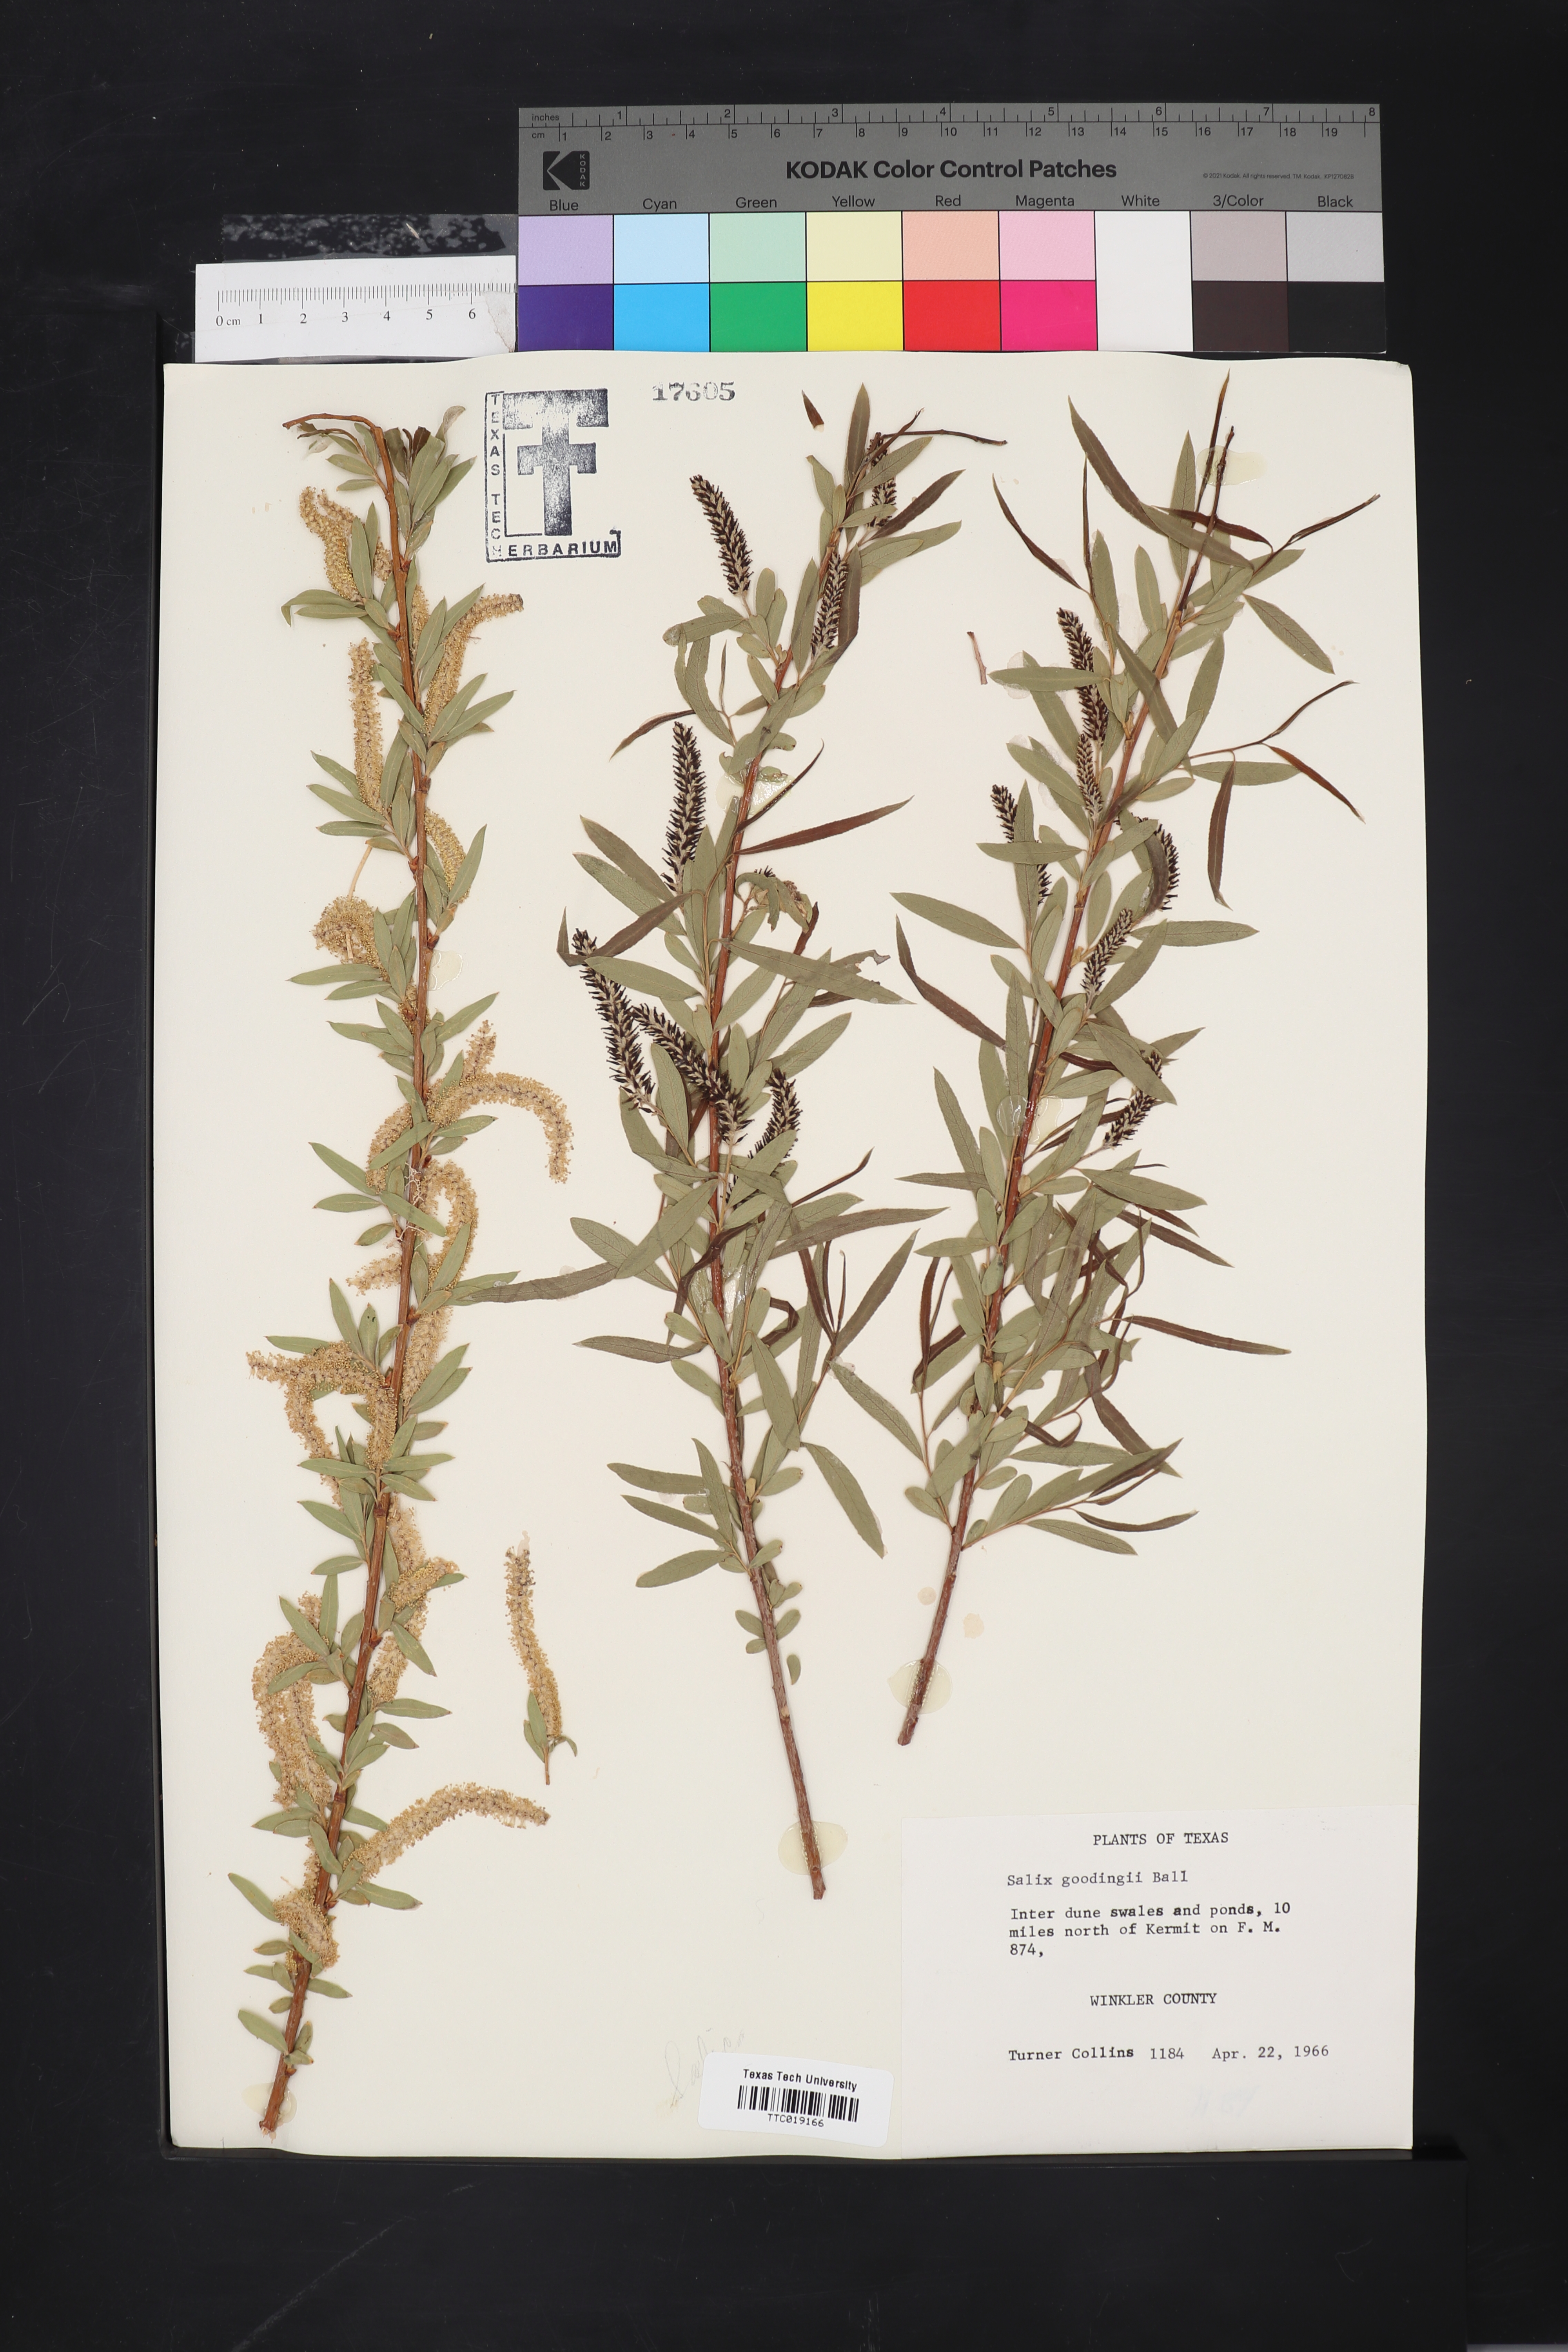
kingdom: Plantae
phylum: Tracheophyta
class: Magnoliopsida
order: Malpighiales
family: Salicaceae
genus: Salix
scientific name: Salix gooddingii
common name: Goodding's willow
